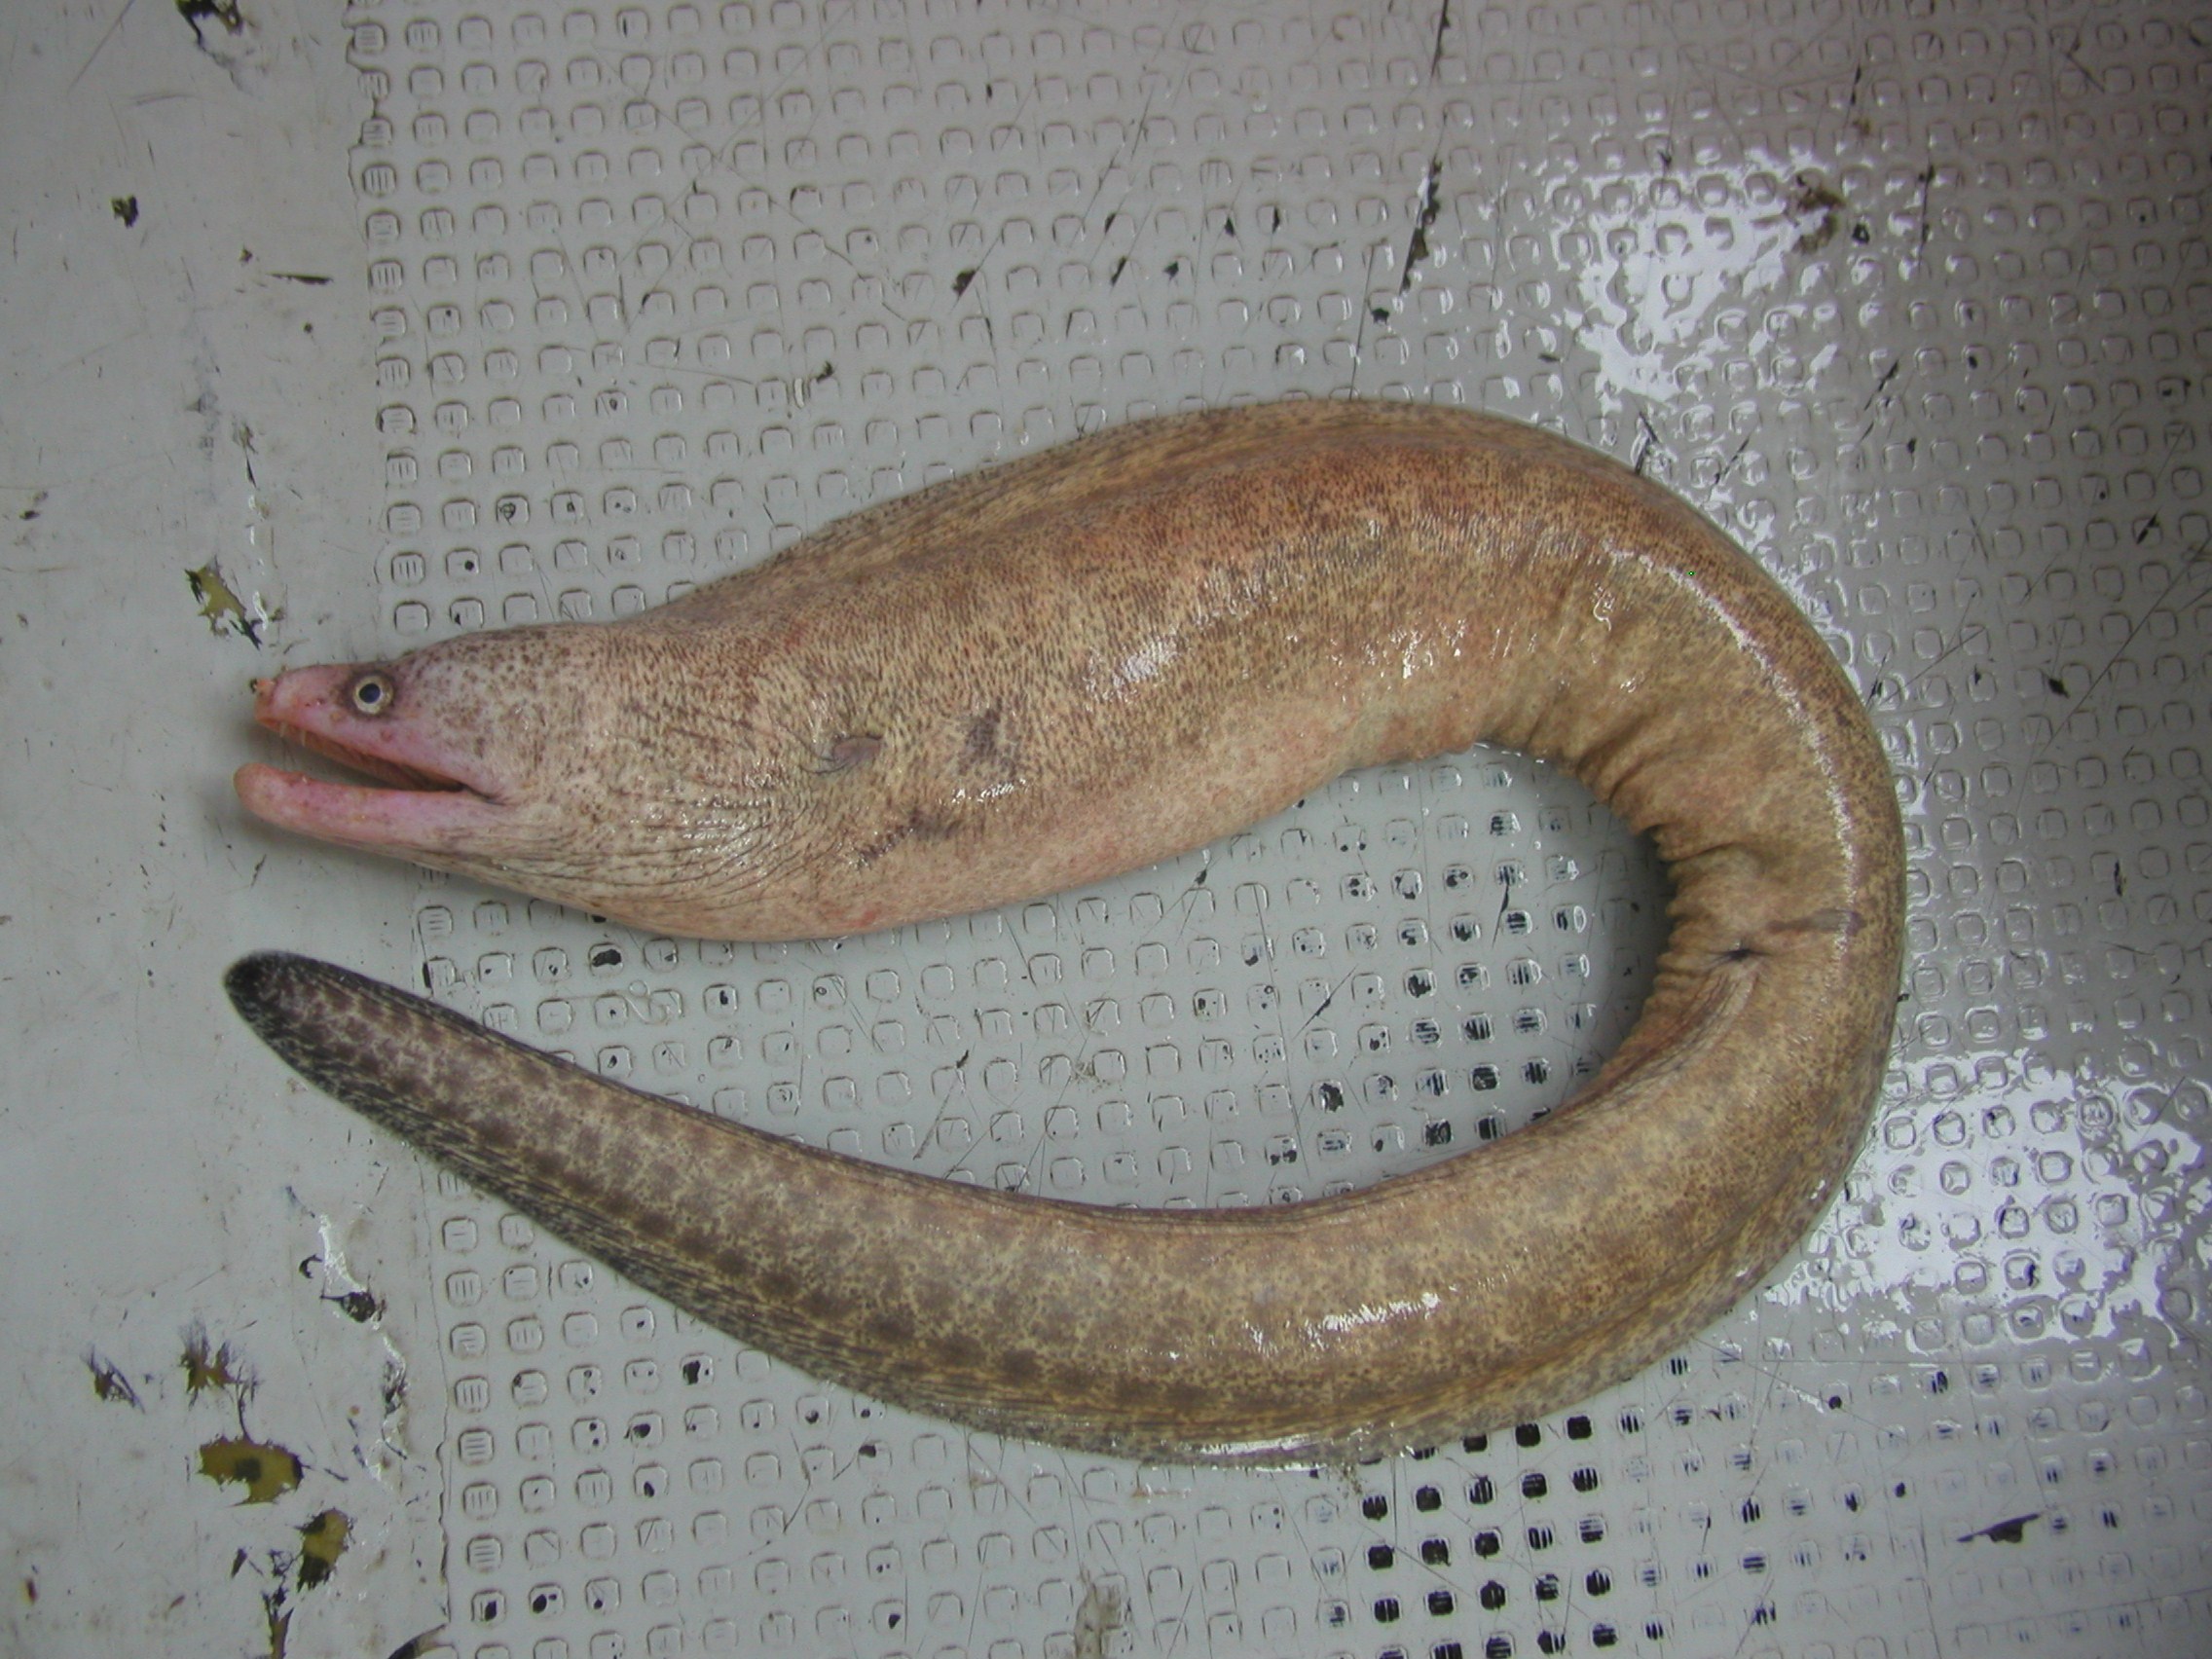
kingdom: Animalia
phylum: Chordata
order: Anguilliformes
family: Muraenidae
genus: Gymnothorax
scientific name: Gymnothorax pseudothyrsoideus
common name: Highfin moray
